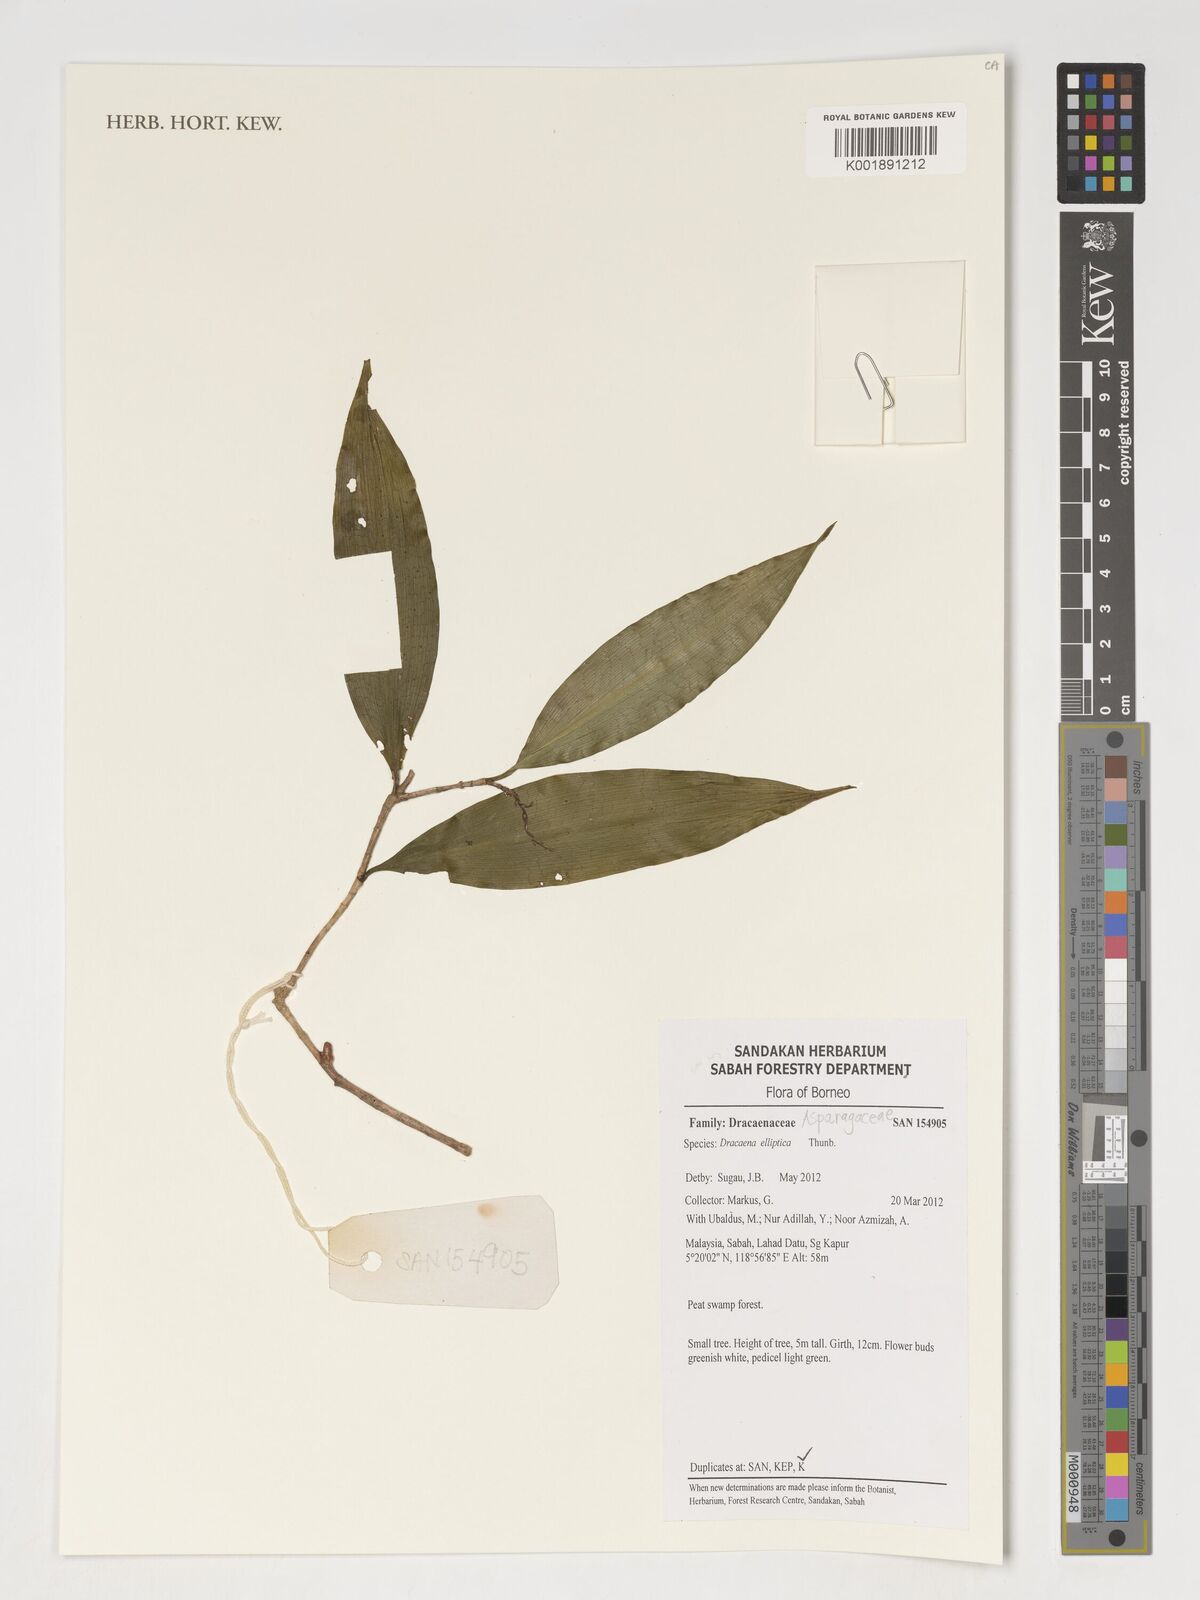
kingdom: Plantae
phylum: Tracheophyta
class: Liliopsida
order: Asparagales
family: Asparagaceae
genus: Dracaena
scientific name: Dracaena
